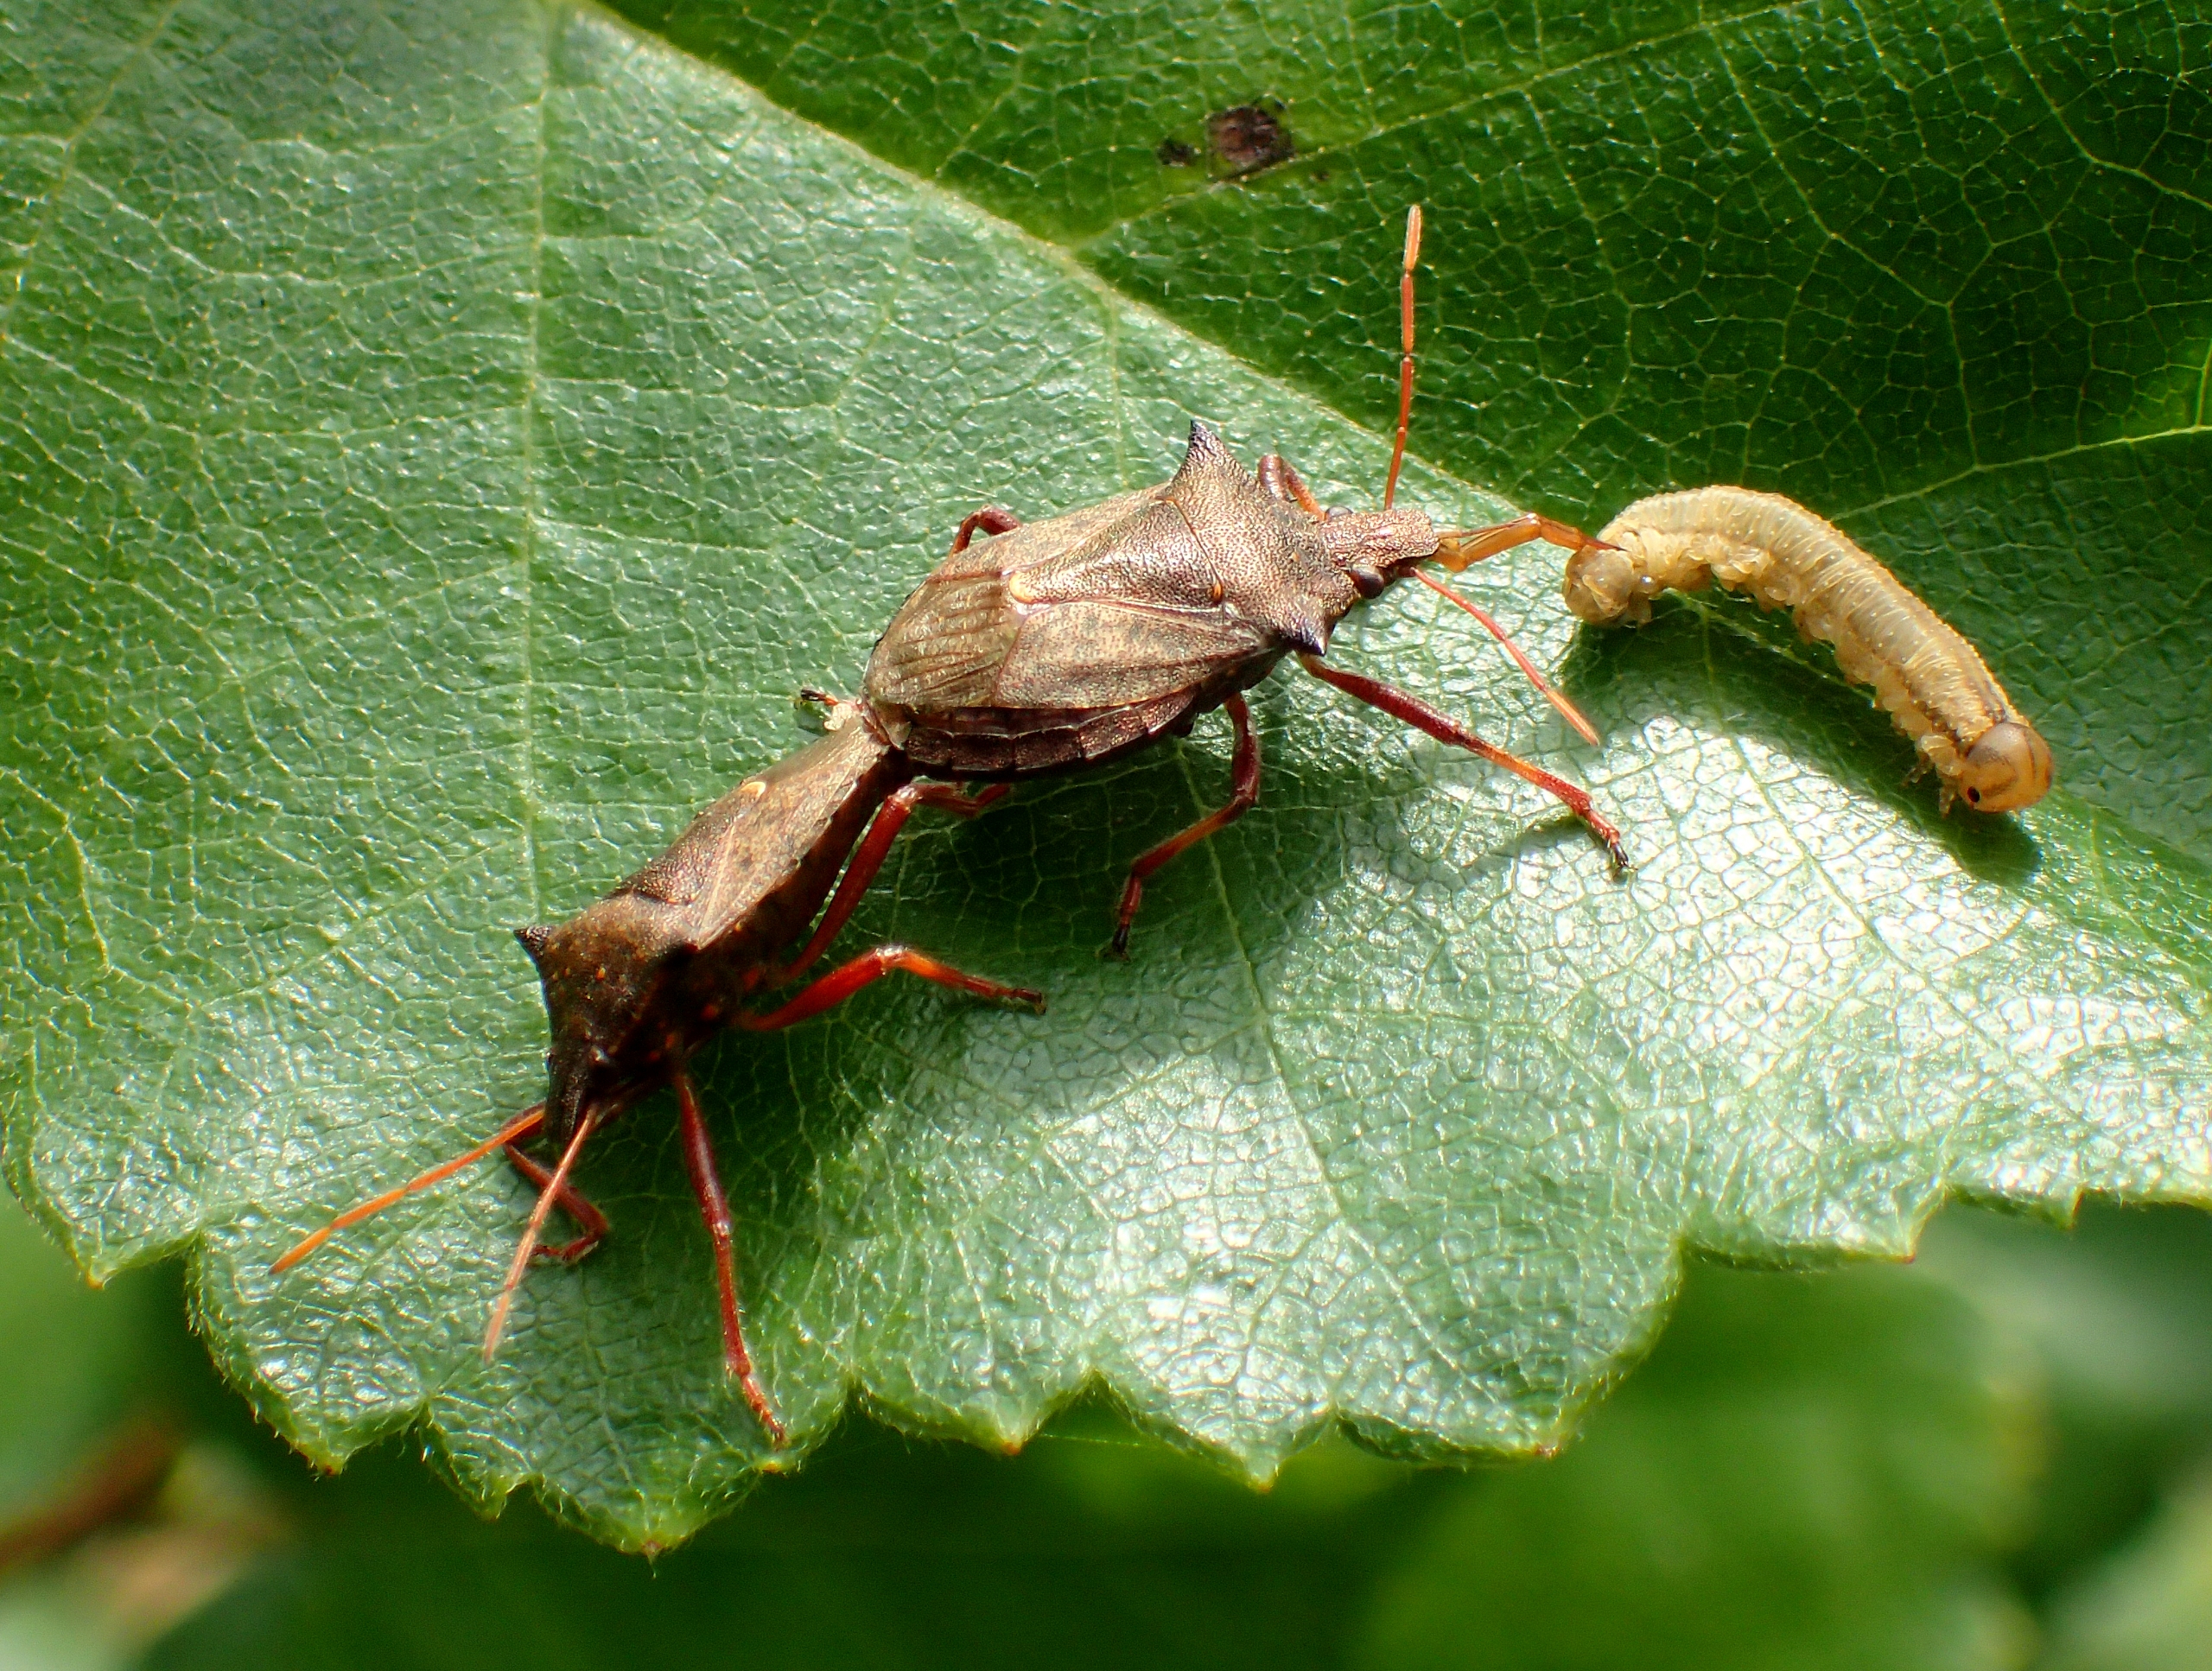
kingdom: Animalia
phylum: Arthropoda
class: Insecta
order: Hemiptera
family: Pentatomidae
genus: Picromerus
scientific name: Picromerus bidens
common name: Torntæge
